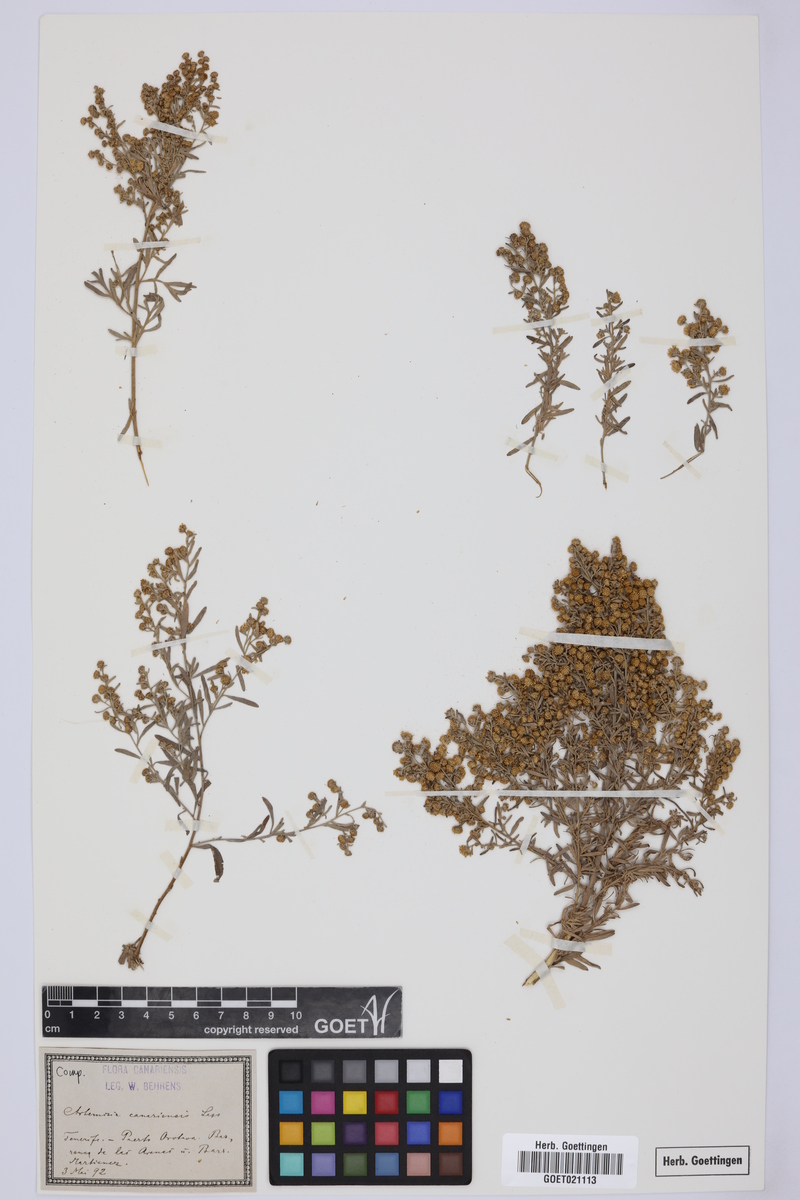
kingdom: Plantae
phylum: Tracheophyta
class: Magnoliopsida
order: Asterales
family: Asteraceae
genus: Artemisia
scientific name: Artemisia thuscula
